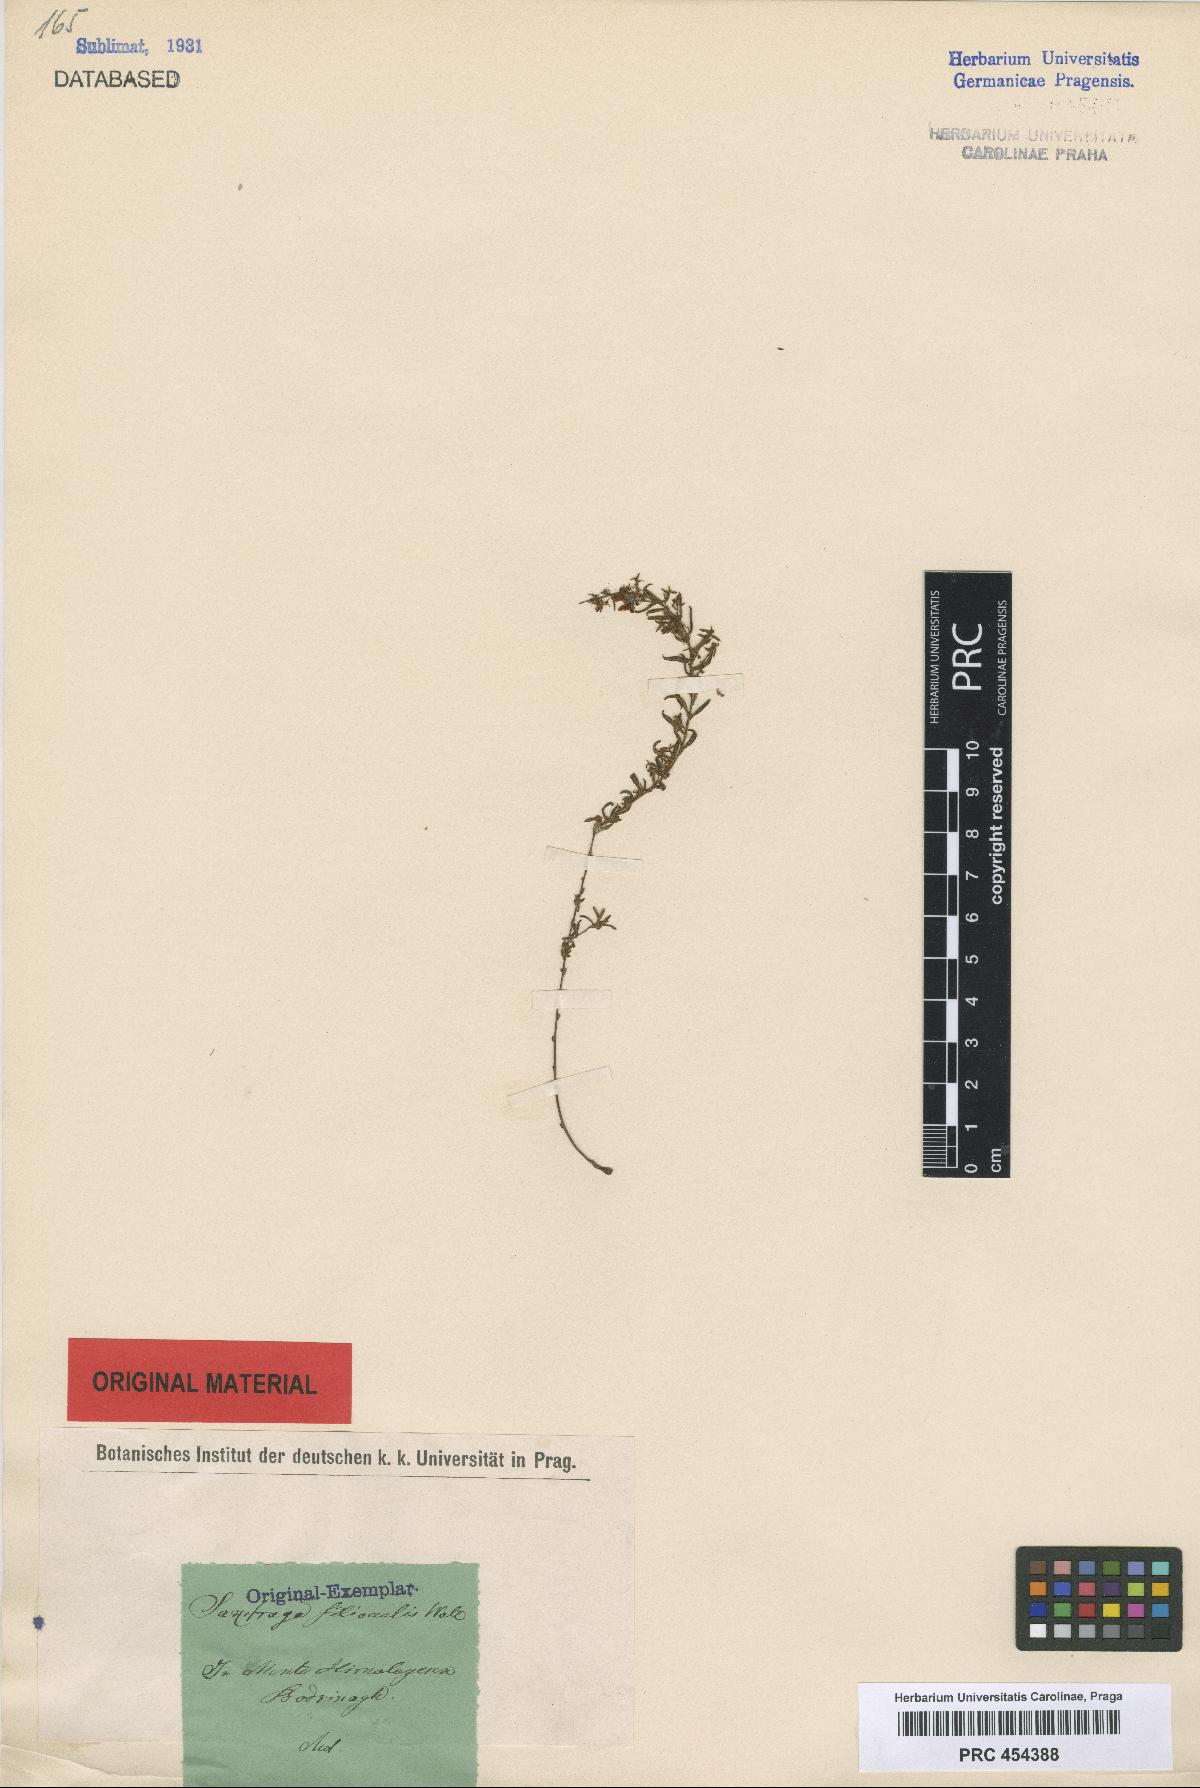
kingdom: Plantae
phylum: Tracheophyta
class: Magnoliopsida
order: Saxifragales
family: Saxifragaceae
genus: Saxifraga
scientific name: Saxifraga filicaulis
